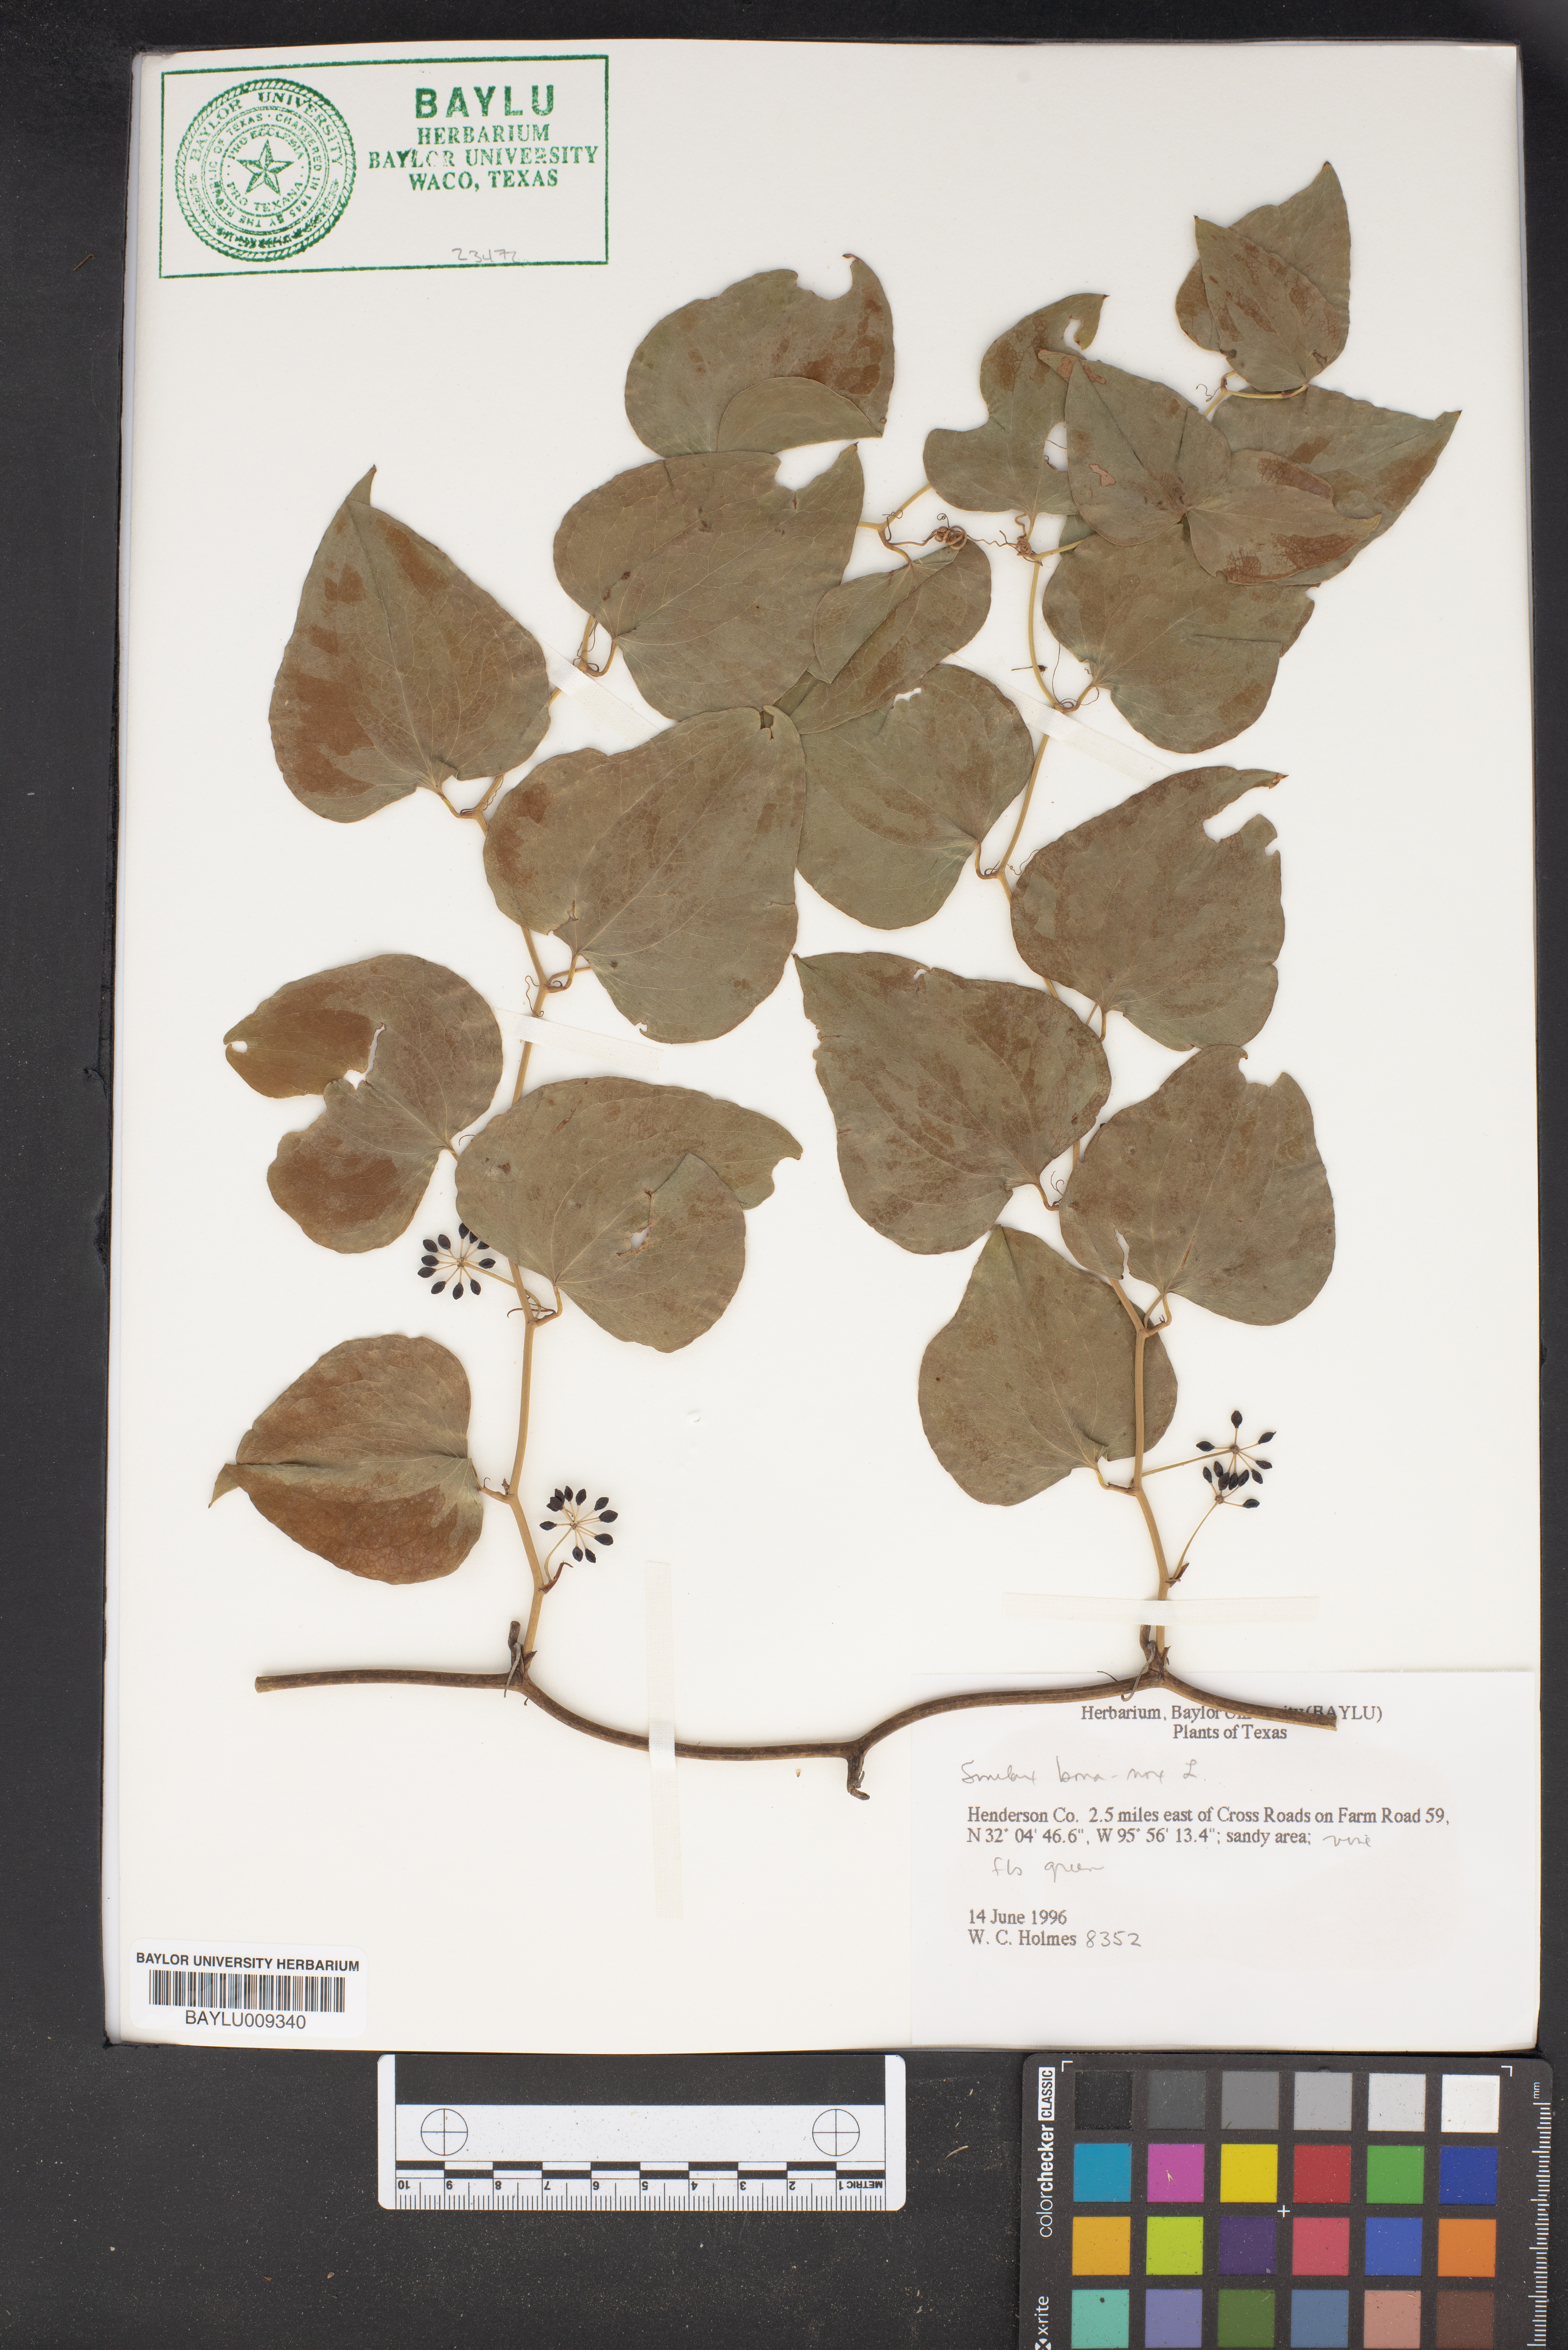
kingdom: Plantae
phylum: Tracheophyta
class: Liliopsida
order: Liliales
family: Smilacaceae
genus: Smilax
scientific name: Smilax bona-nox
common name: Catbrier
